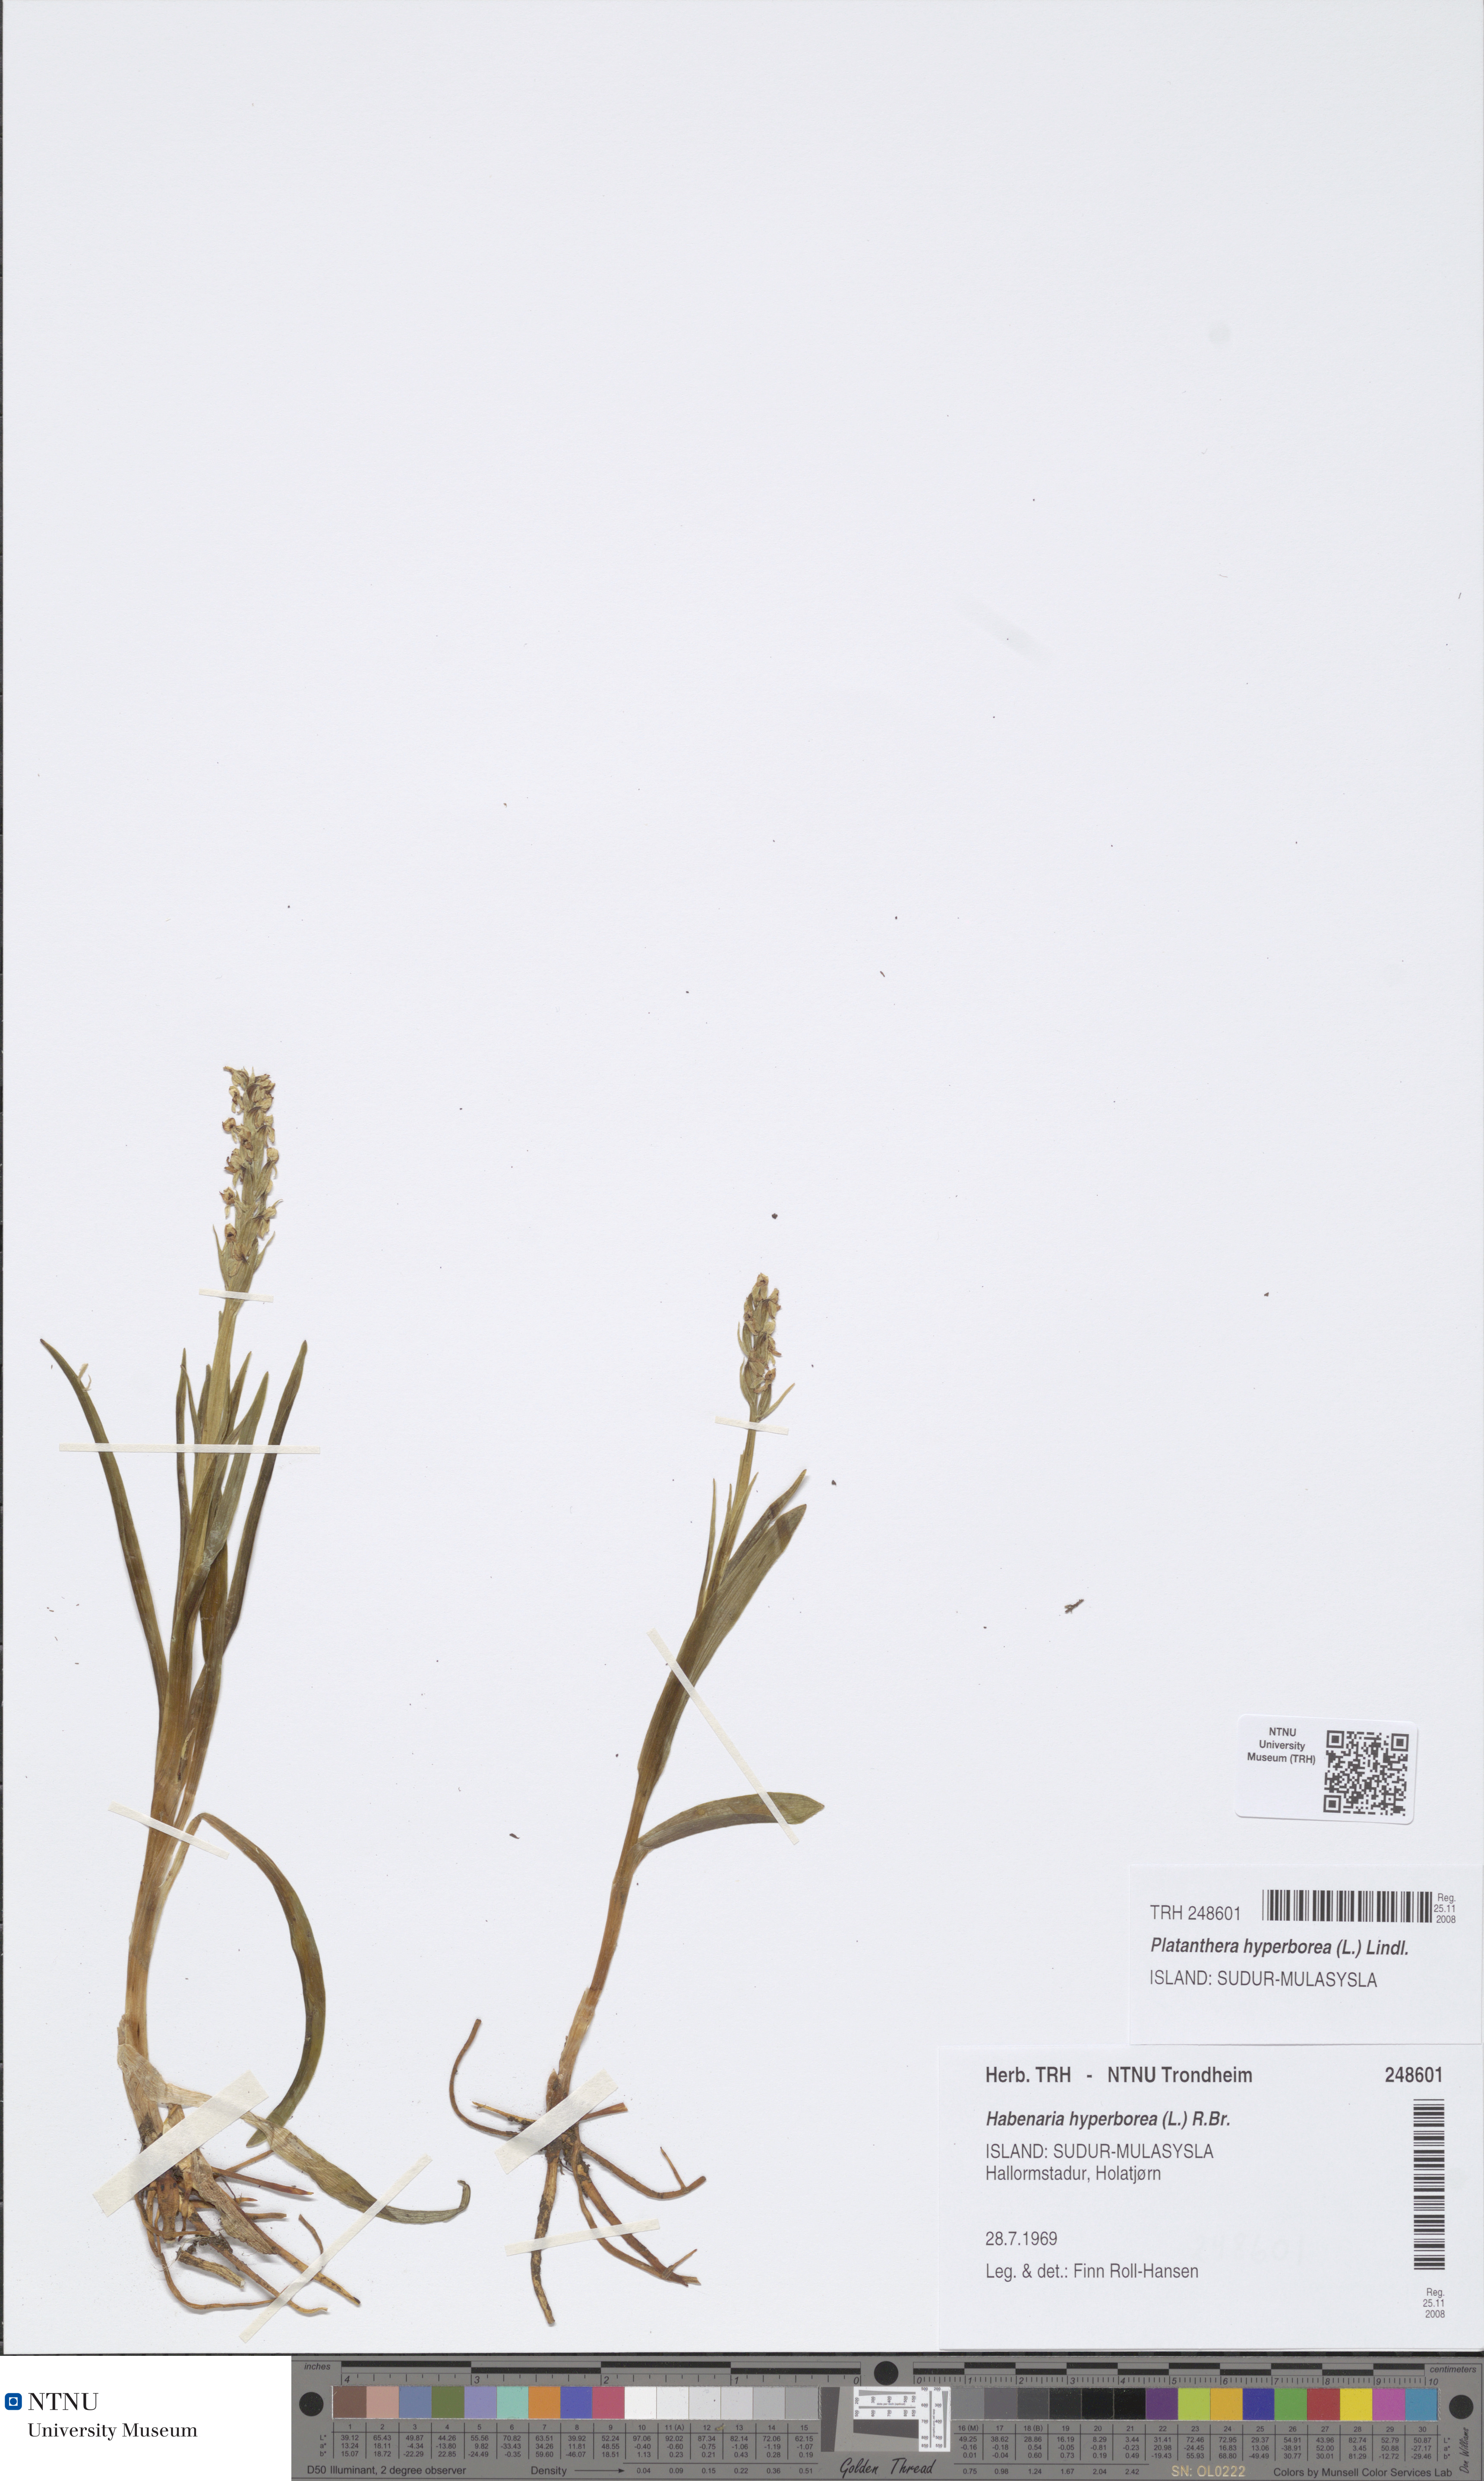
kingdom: Plantae
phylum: Tracheophyta
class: Liliopsida
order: Asparagales
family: Orchidaceae
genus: Platanthera
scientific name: Platanthera hyperborea
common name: Northern green orchid
